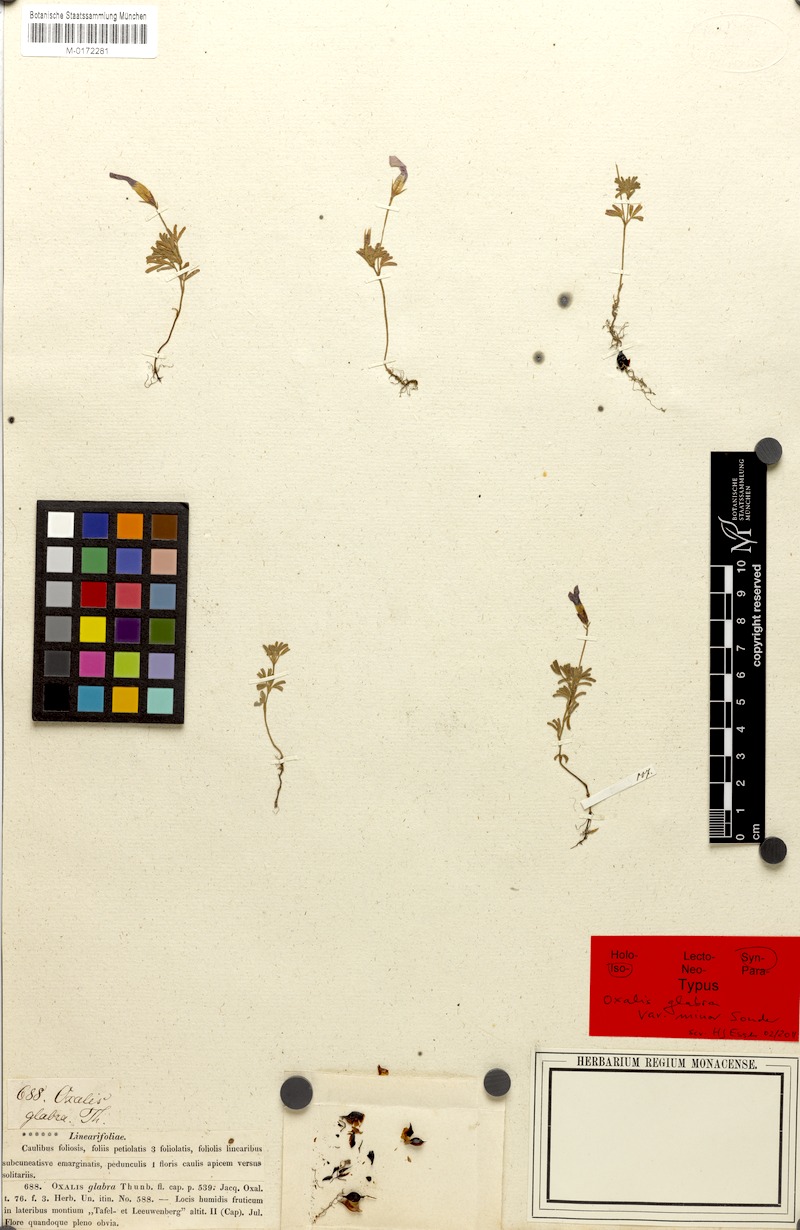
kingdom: Plantae
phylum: Tracheophyta
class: Magnoliopsida
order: Oxalidales
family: Oxalidaceae
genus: Oxalis
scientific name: Oxalis glabra
